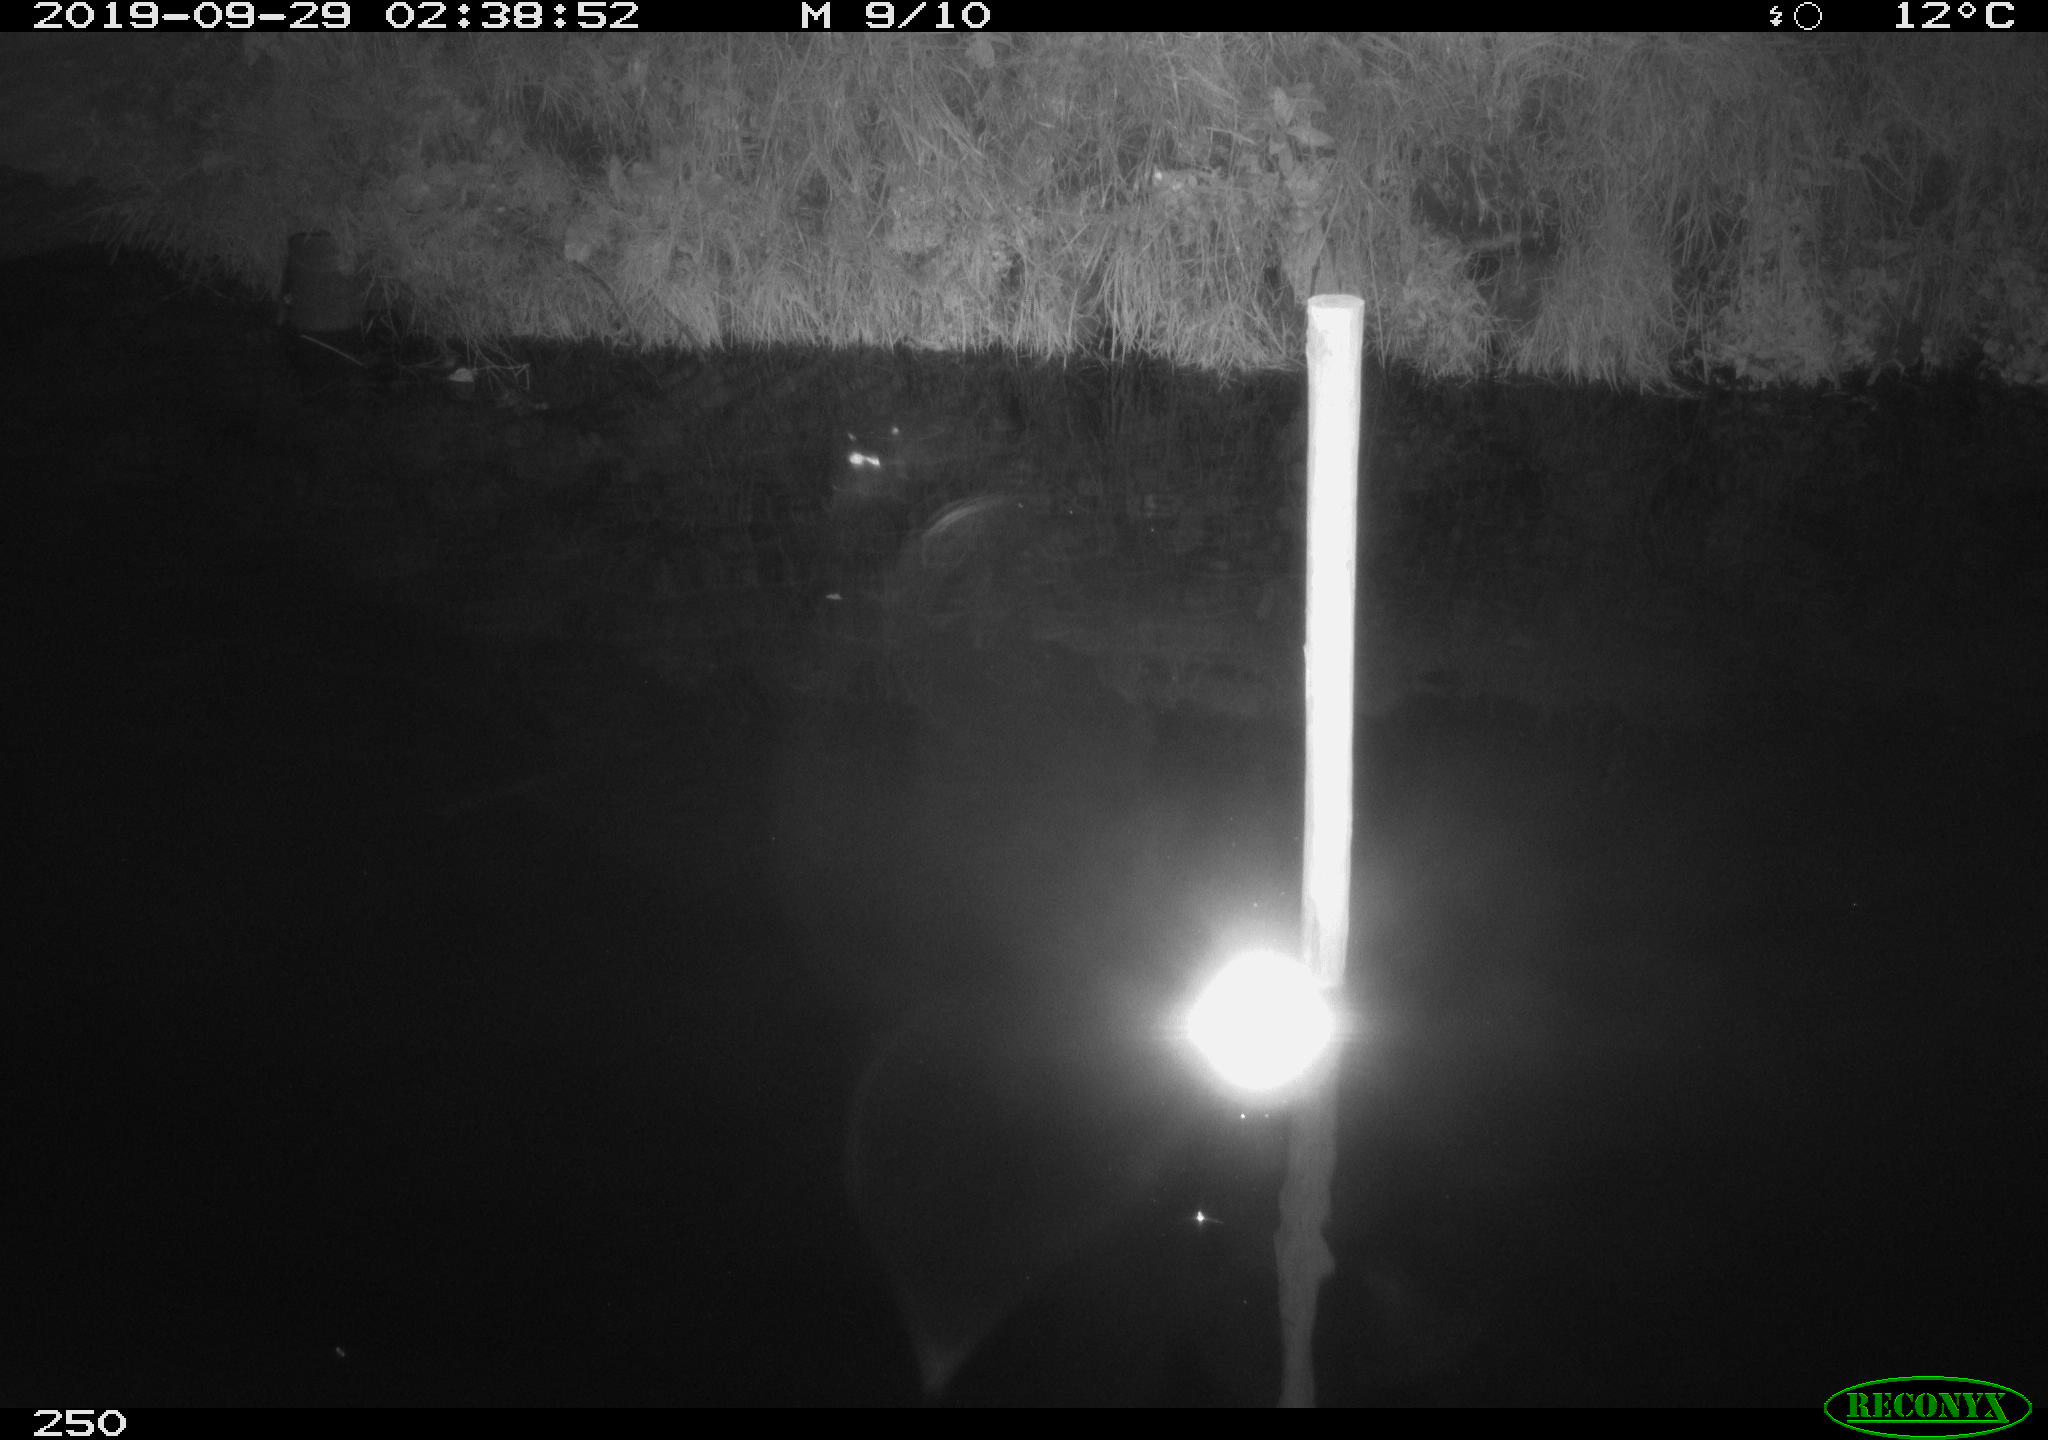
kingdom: Animalia
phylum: Chordata
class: Aves
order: Anseriformes
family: Anatidae
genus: Anas
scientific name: Anas platyrhynchos
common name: Mallard
